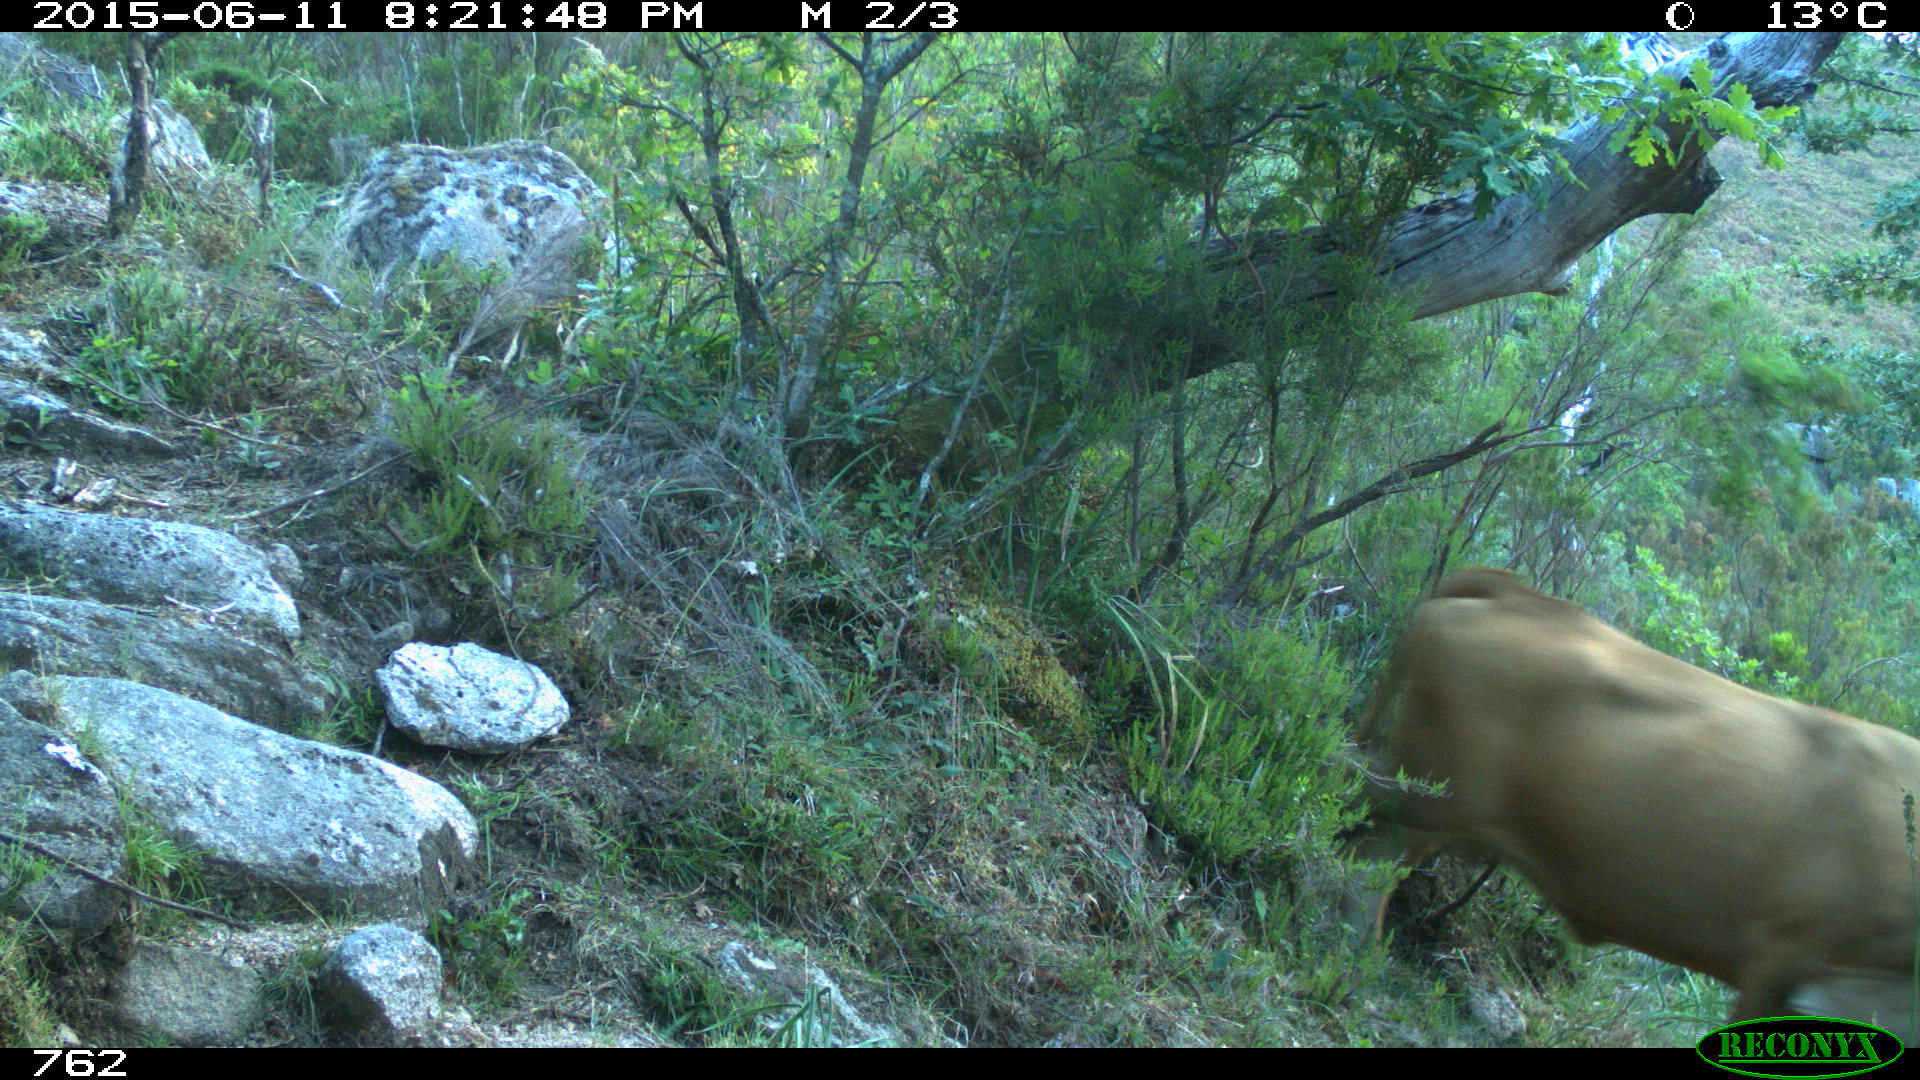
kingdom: Animalia
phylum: Chordata
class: Mammalia
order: Artiodactyla
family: Bovidae
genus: Bos
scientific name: Bos taurus
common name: Domesticated cattle
